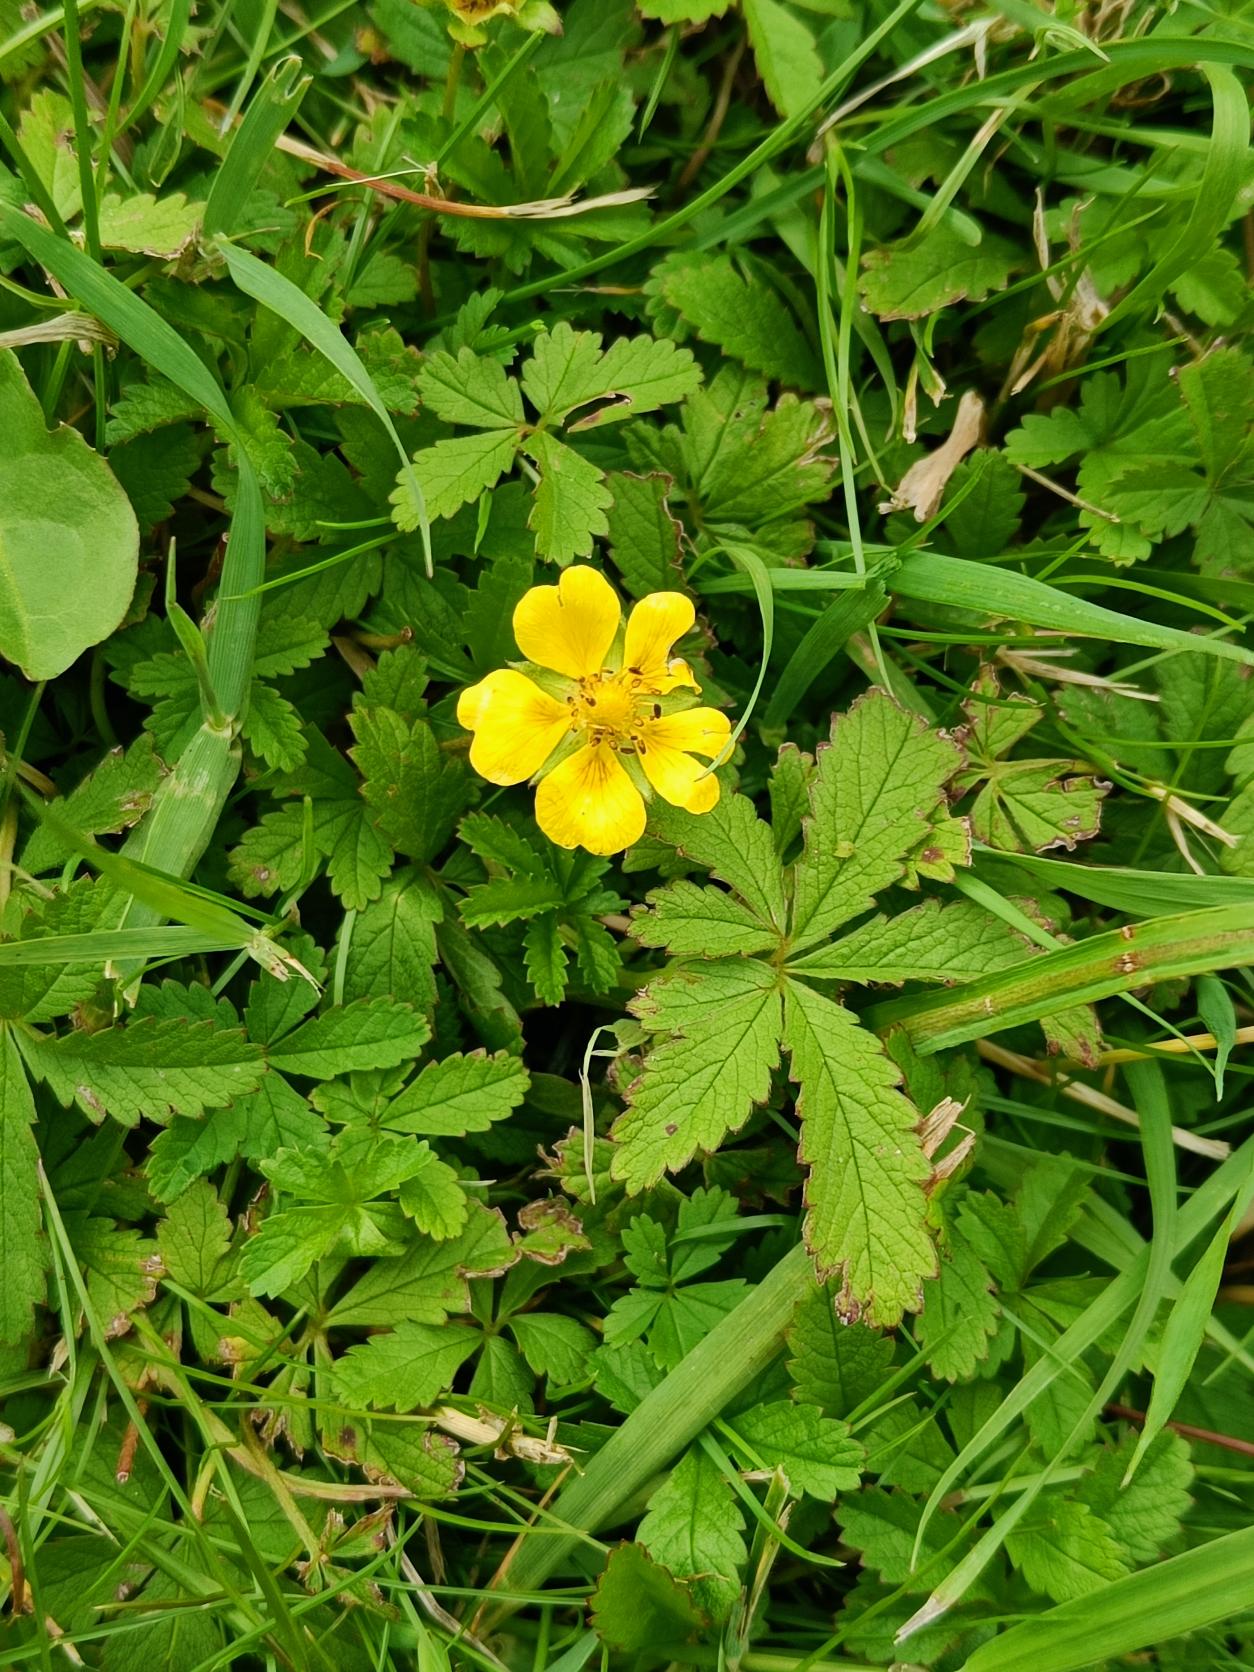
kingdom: Plantae
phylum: Tracheophyta
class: Magnoliopsida
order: Rosales
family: Rosaceae
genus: Potentilla
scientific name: Potentilla reptans
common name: Krybende potentil
